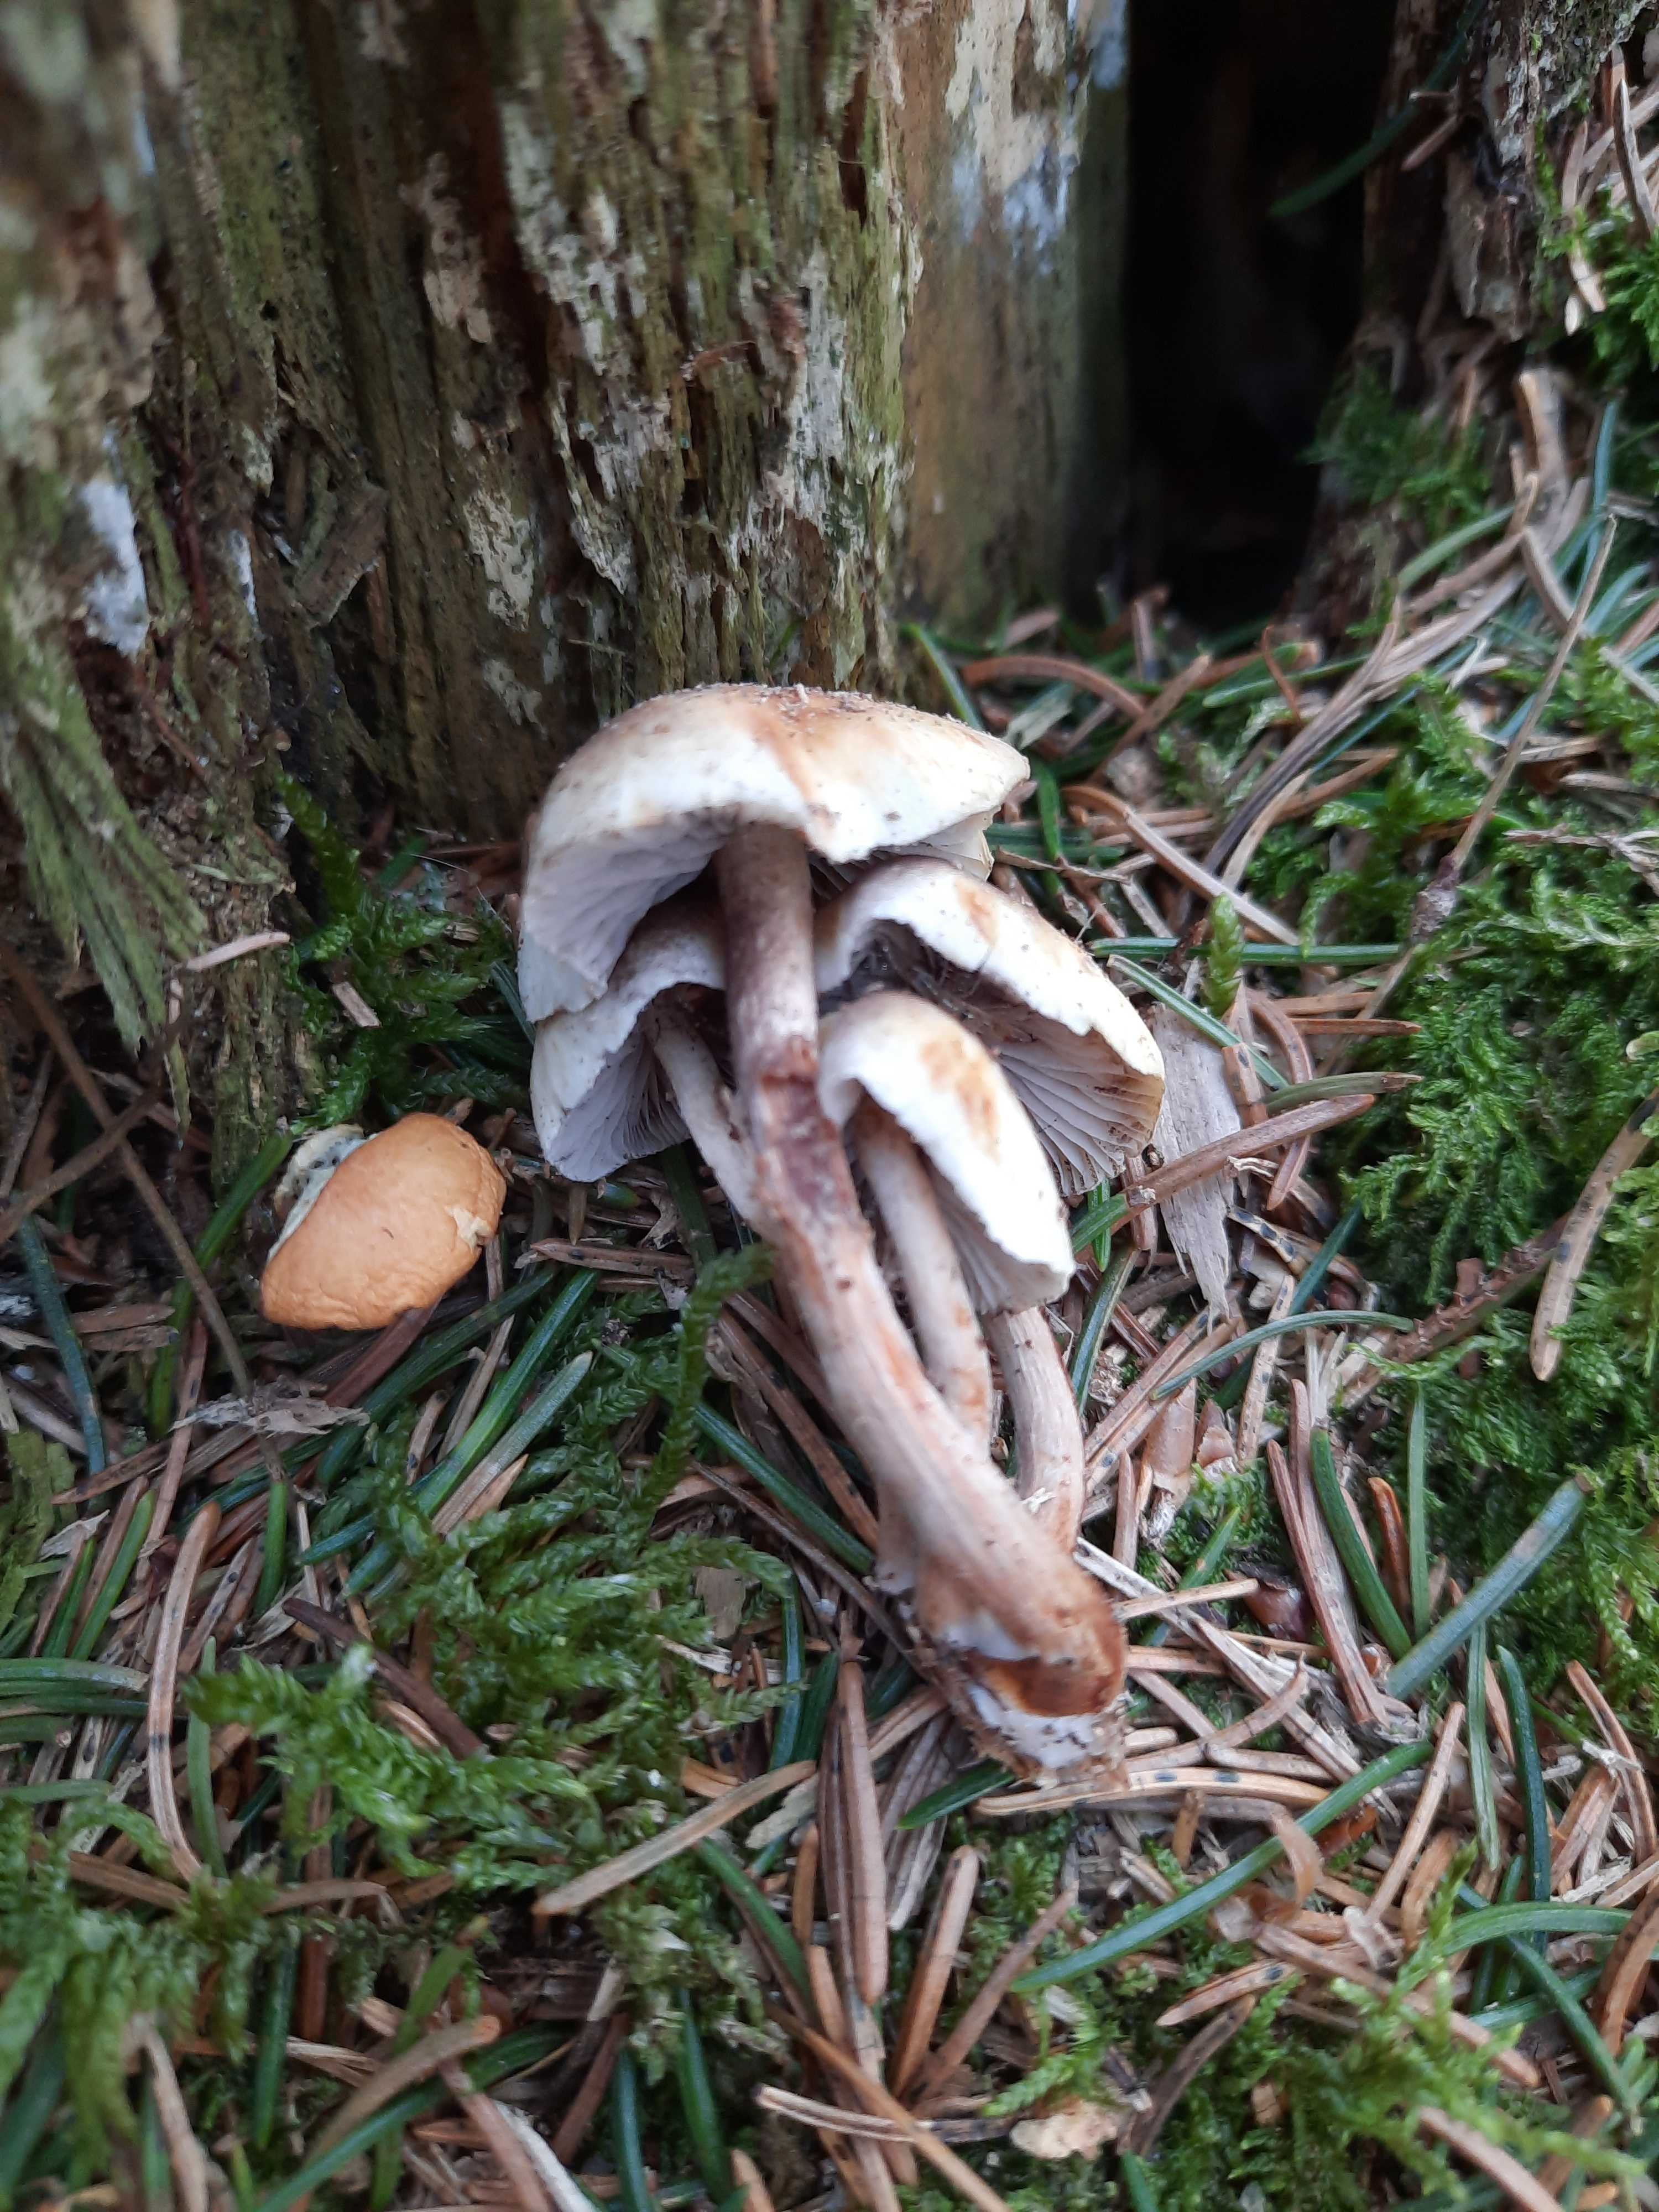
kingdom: Fungi
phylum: Basidiomycota
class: Agaricomycetes
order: Agaricales
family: Strophariaceae
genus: Hypholoma
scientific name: Hypholoma capnoides
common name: gran-svovlhat
